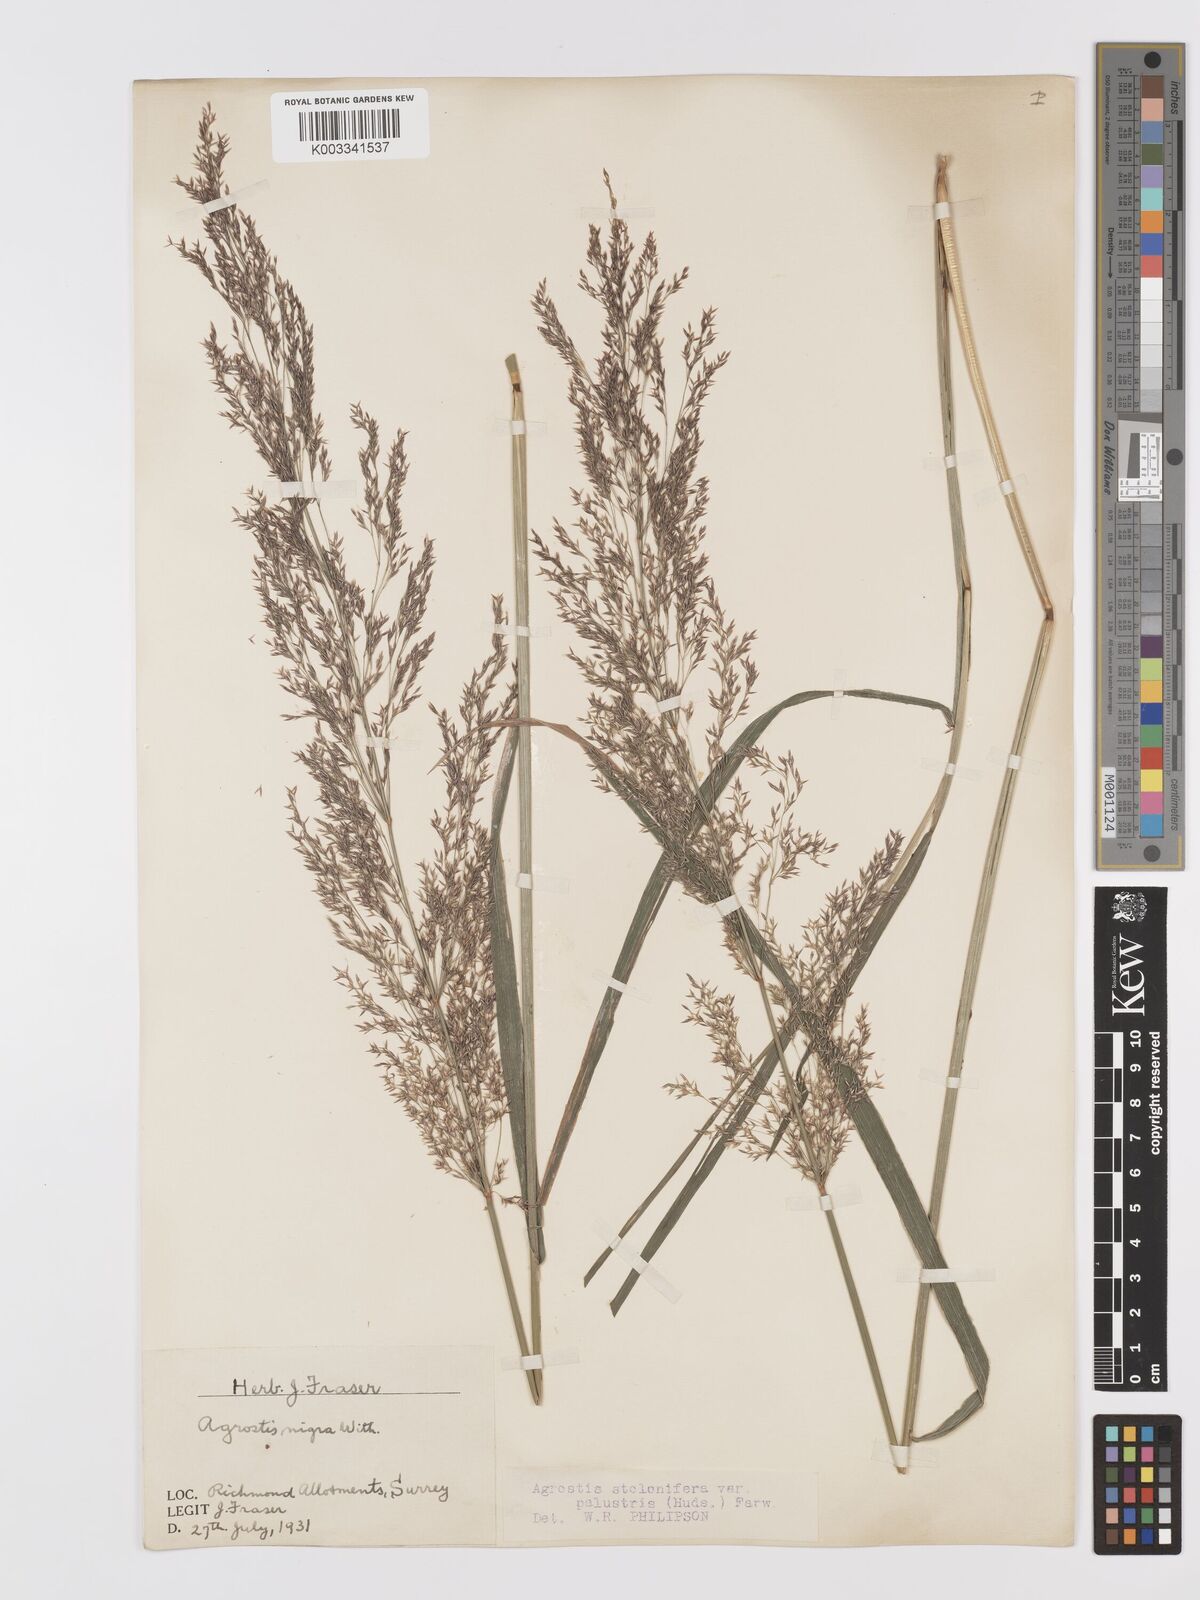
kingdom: Plantae
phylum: Tracheophyta
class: Liliopsida
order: Poales
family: Poaceae
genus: Agrostis
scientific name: Agrostis stolonifera
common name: Creeping bentgrass
